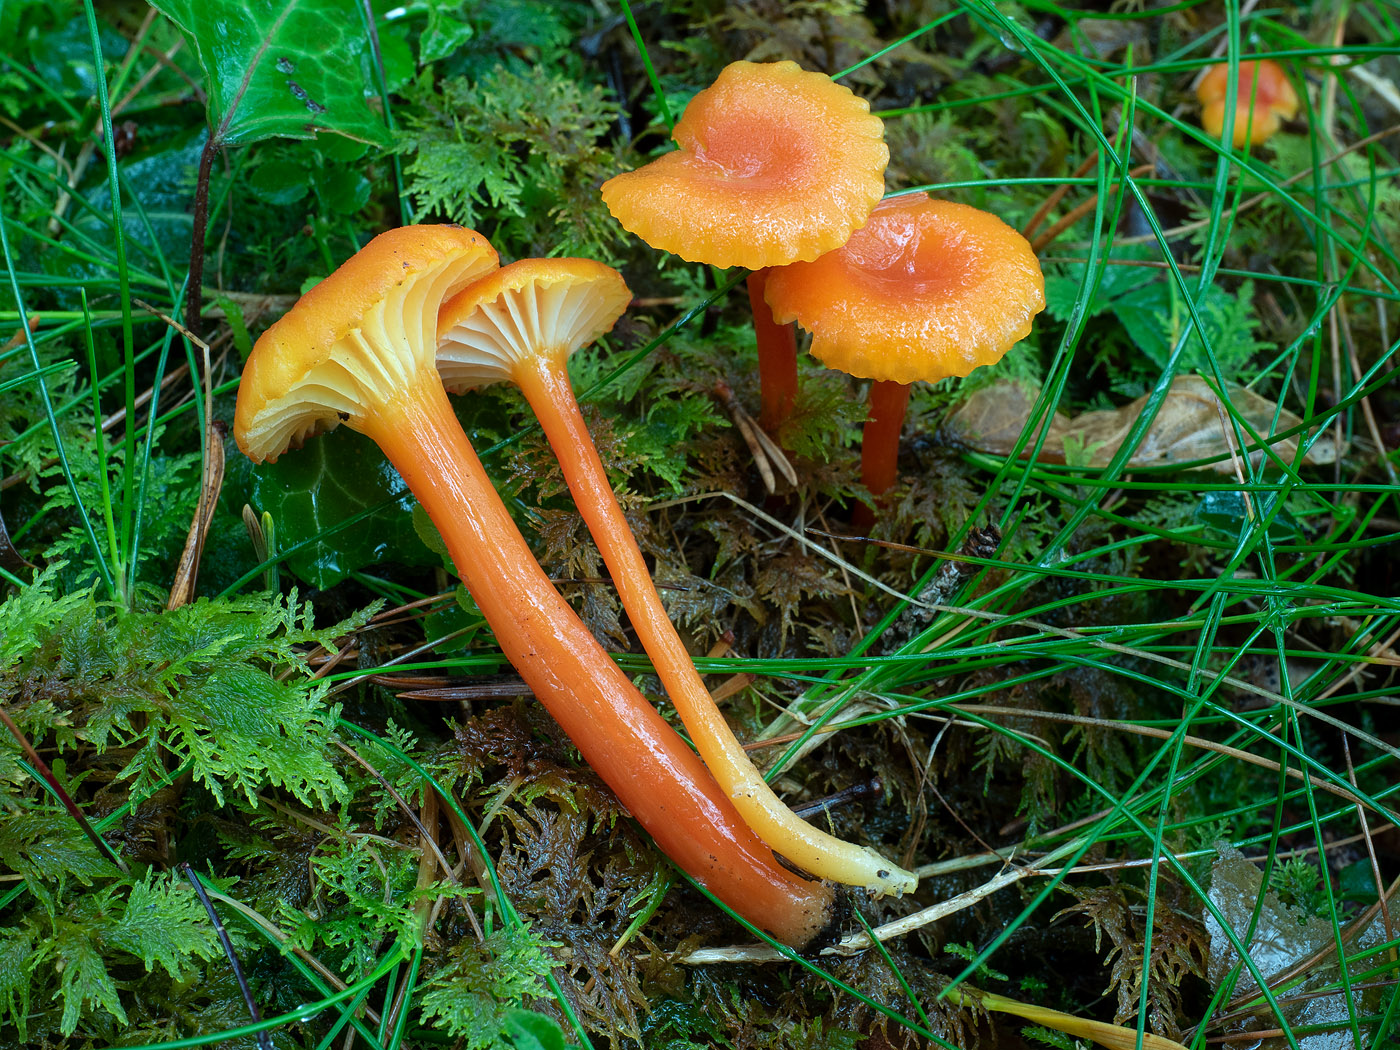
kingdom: Fungi
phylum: Basidiomycota
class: Agaricomycetes
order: Agaricales
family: Hygrophoraceae
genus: Hygrocybe
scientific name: Hygrocybe cantharellus
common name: kantarel-vokshat
